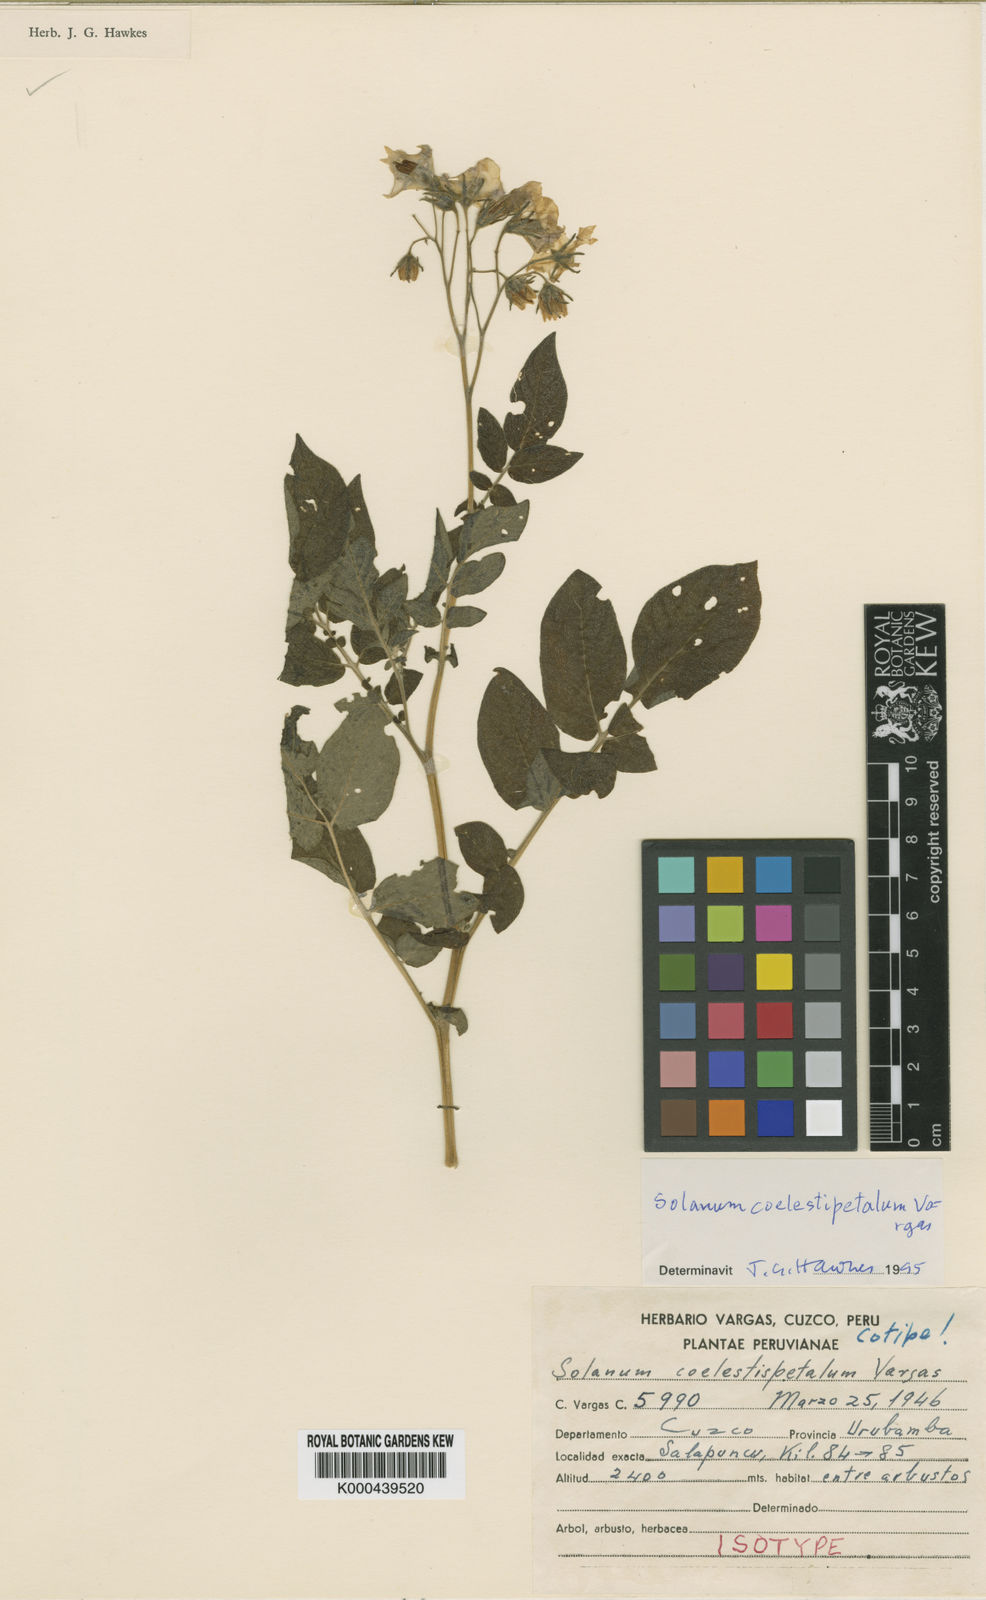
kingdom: Plantae
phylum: Tracheophyta
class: Magnoliopsida
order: Solanales
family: Solanaceae
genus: Solanum
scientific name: Solanum brevicaule
